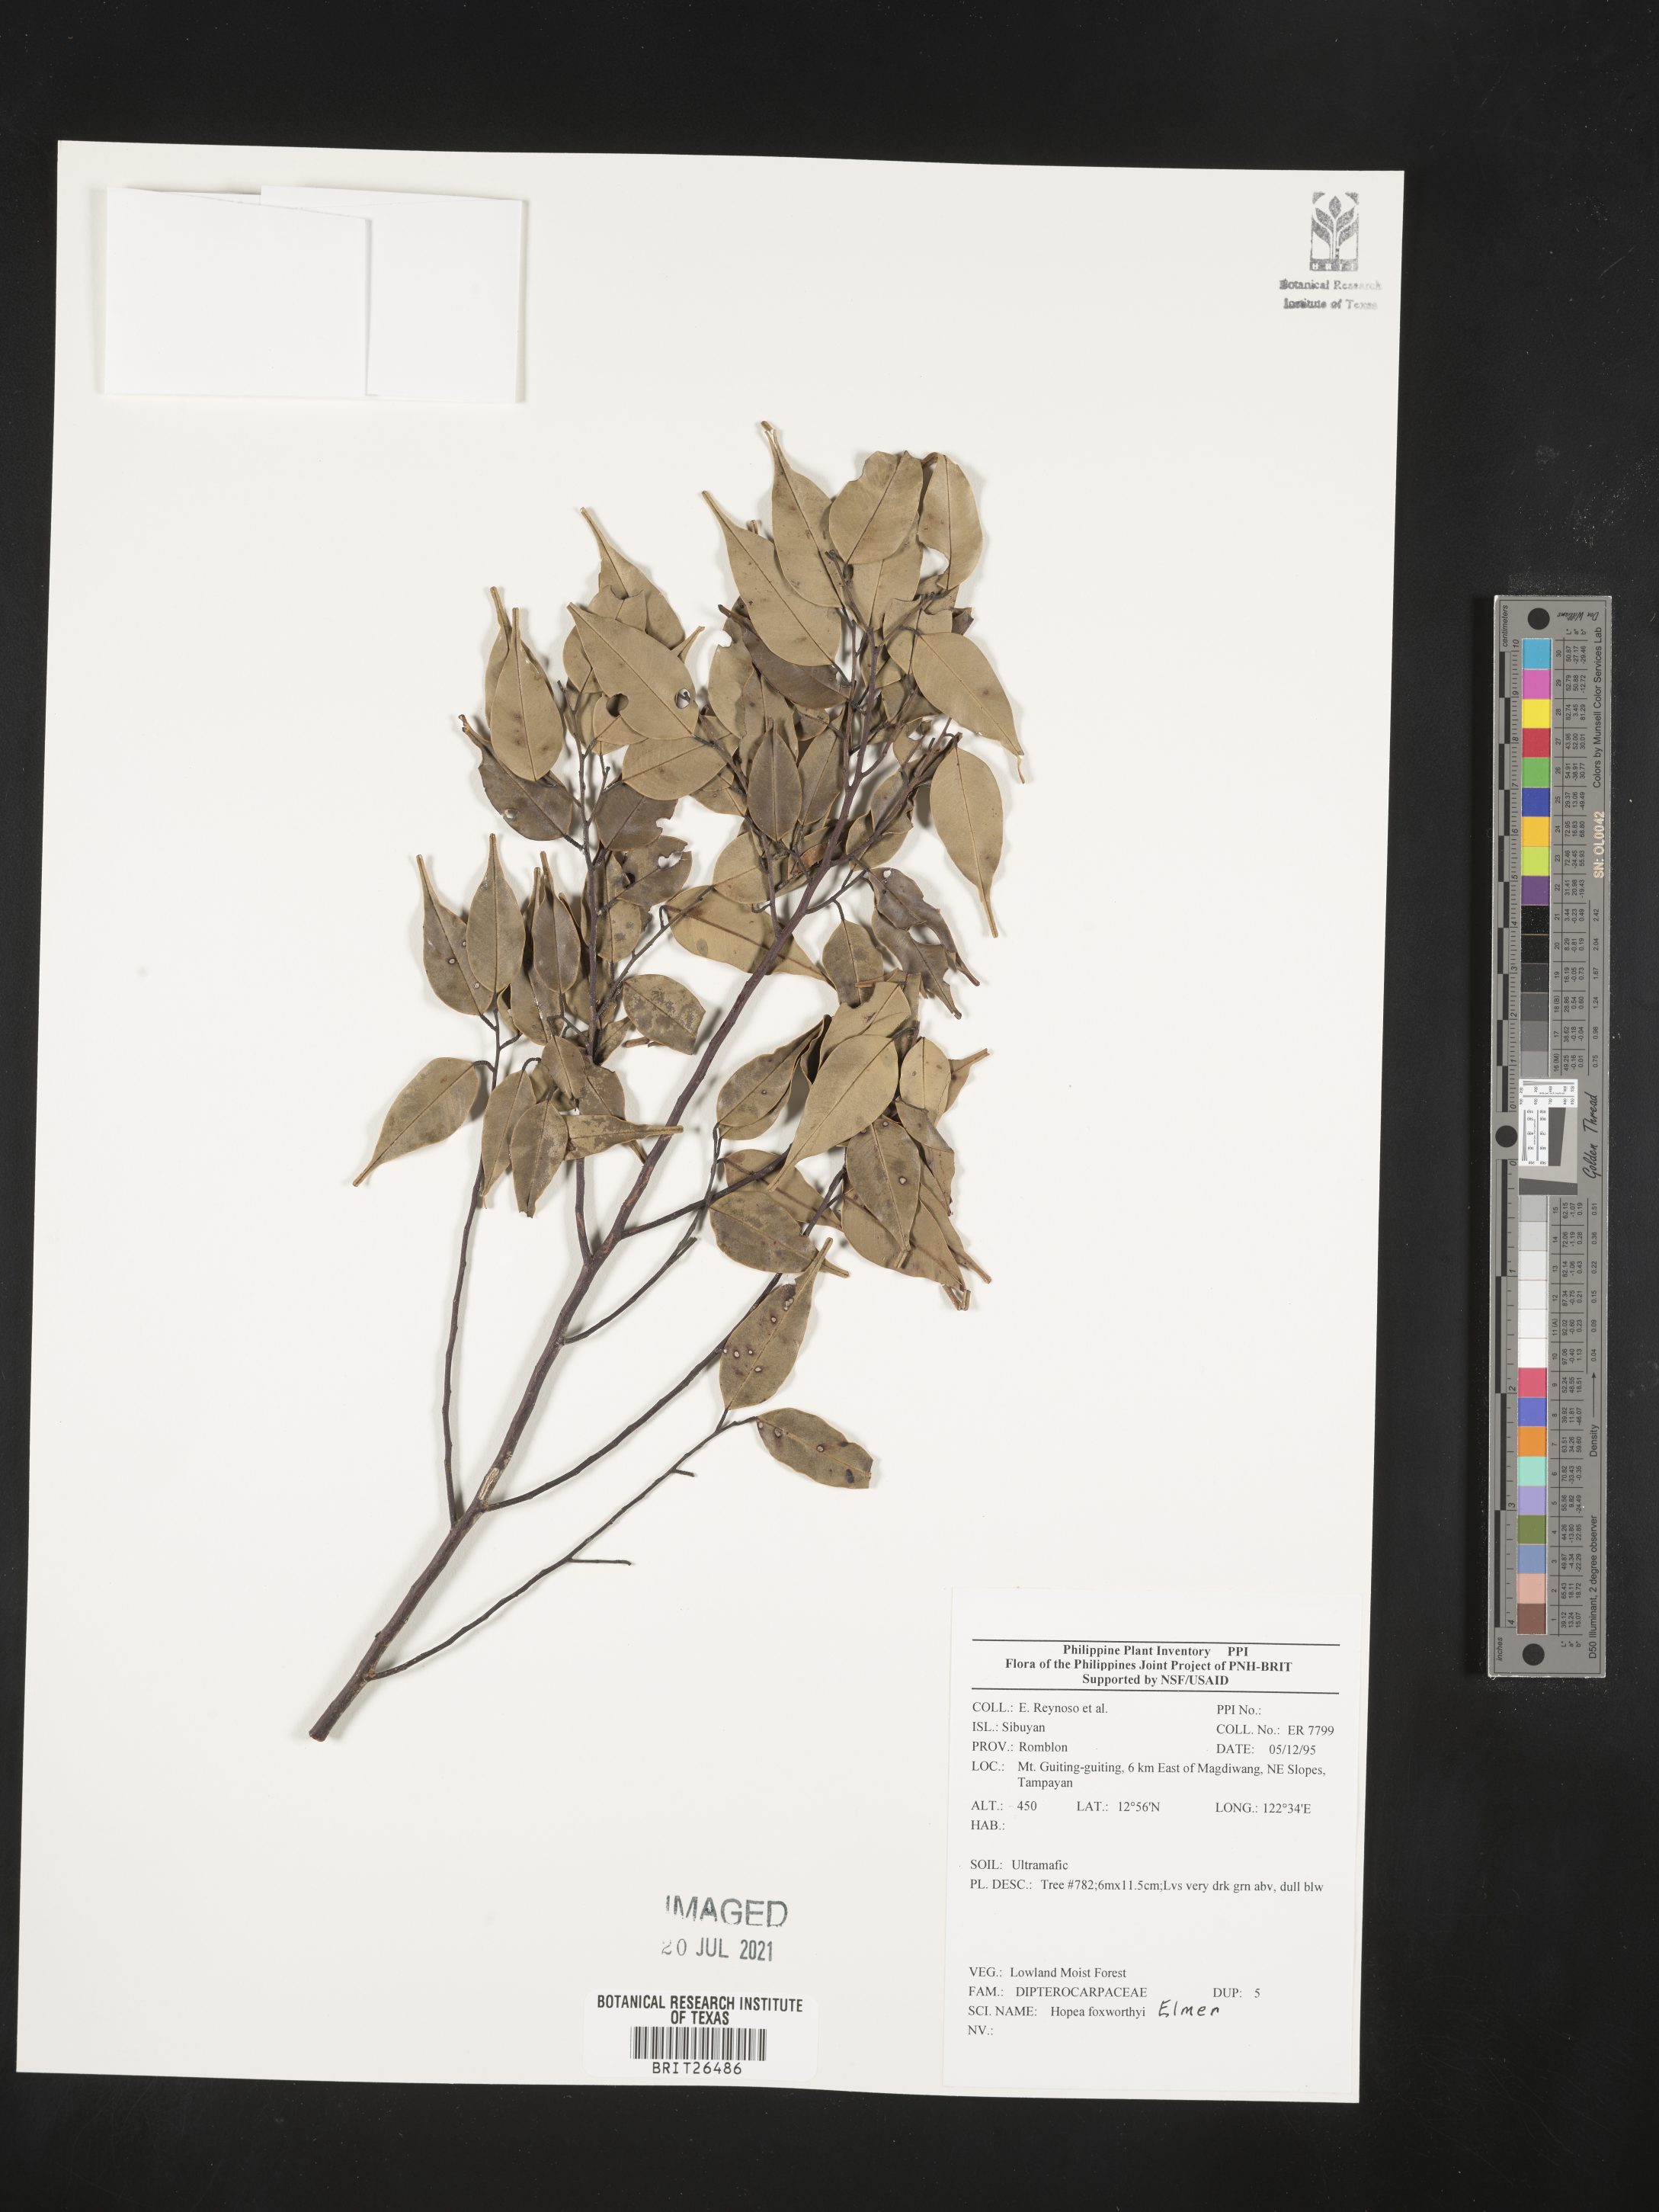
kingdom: Plantae
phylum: Tracheophyta
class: Magnoliopsida
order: Malvales
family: Dipterocarpaceae
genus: Hopea
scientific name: Hopea foxworthyi
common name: Dalingdingan
